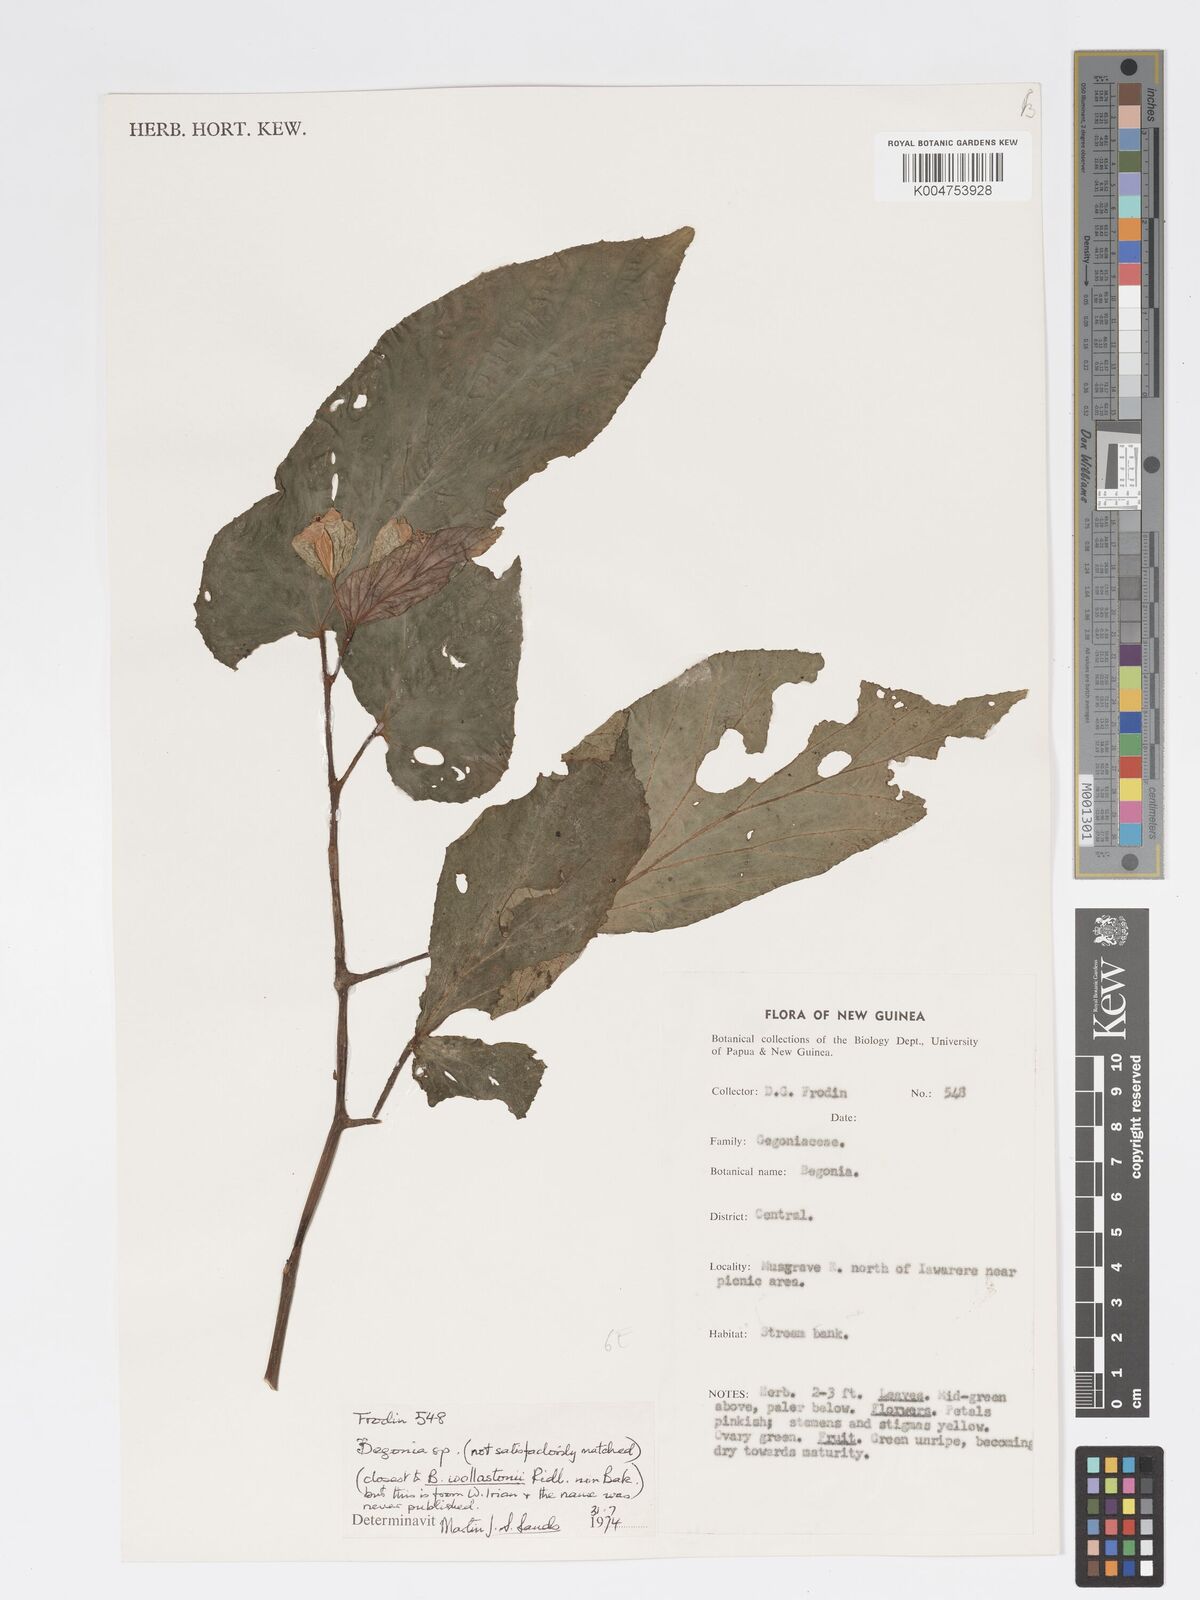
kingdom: Plantae
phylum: Tracheophyta
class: Magnoliopsida
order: Cucurbitales
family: Begoniaceae
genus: Begonia
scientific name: Begonia wollastonii
